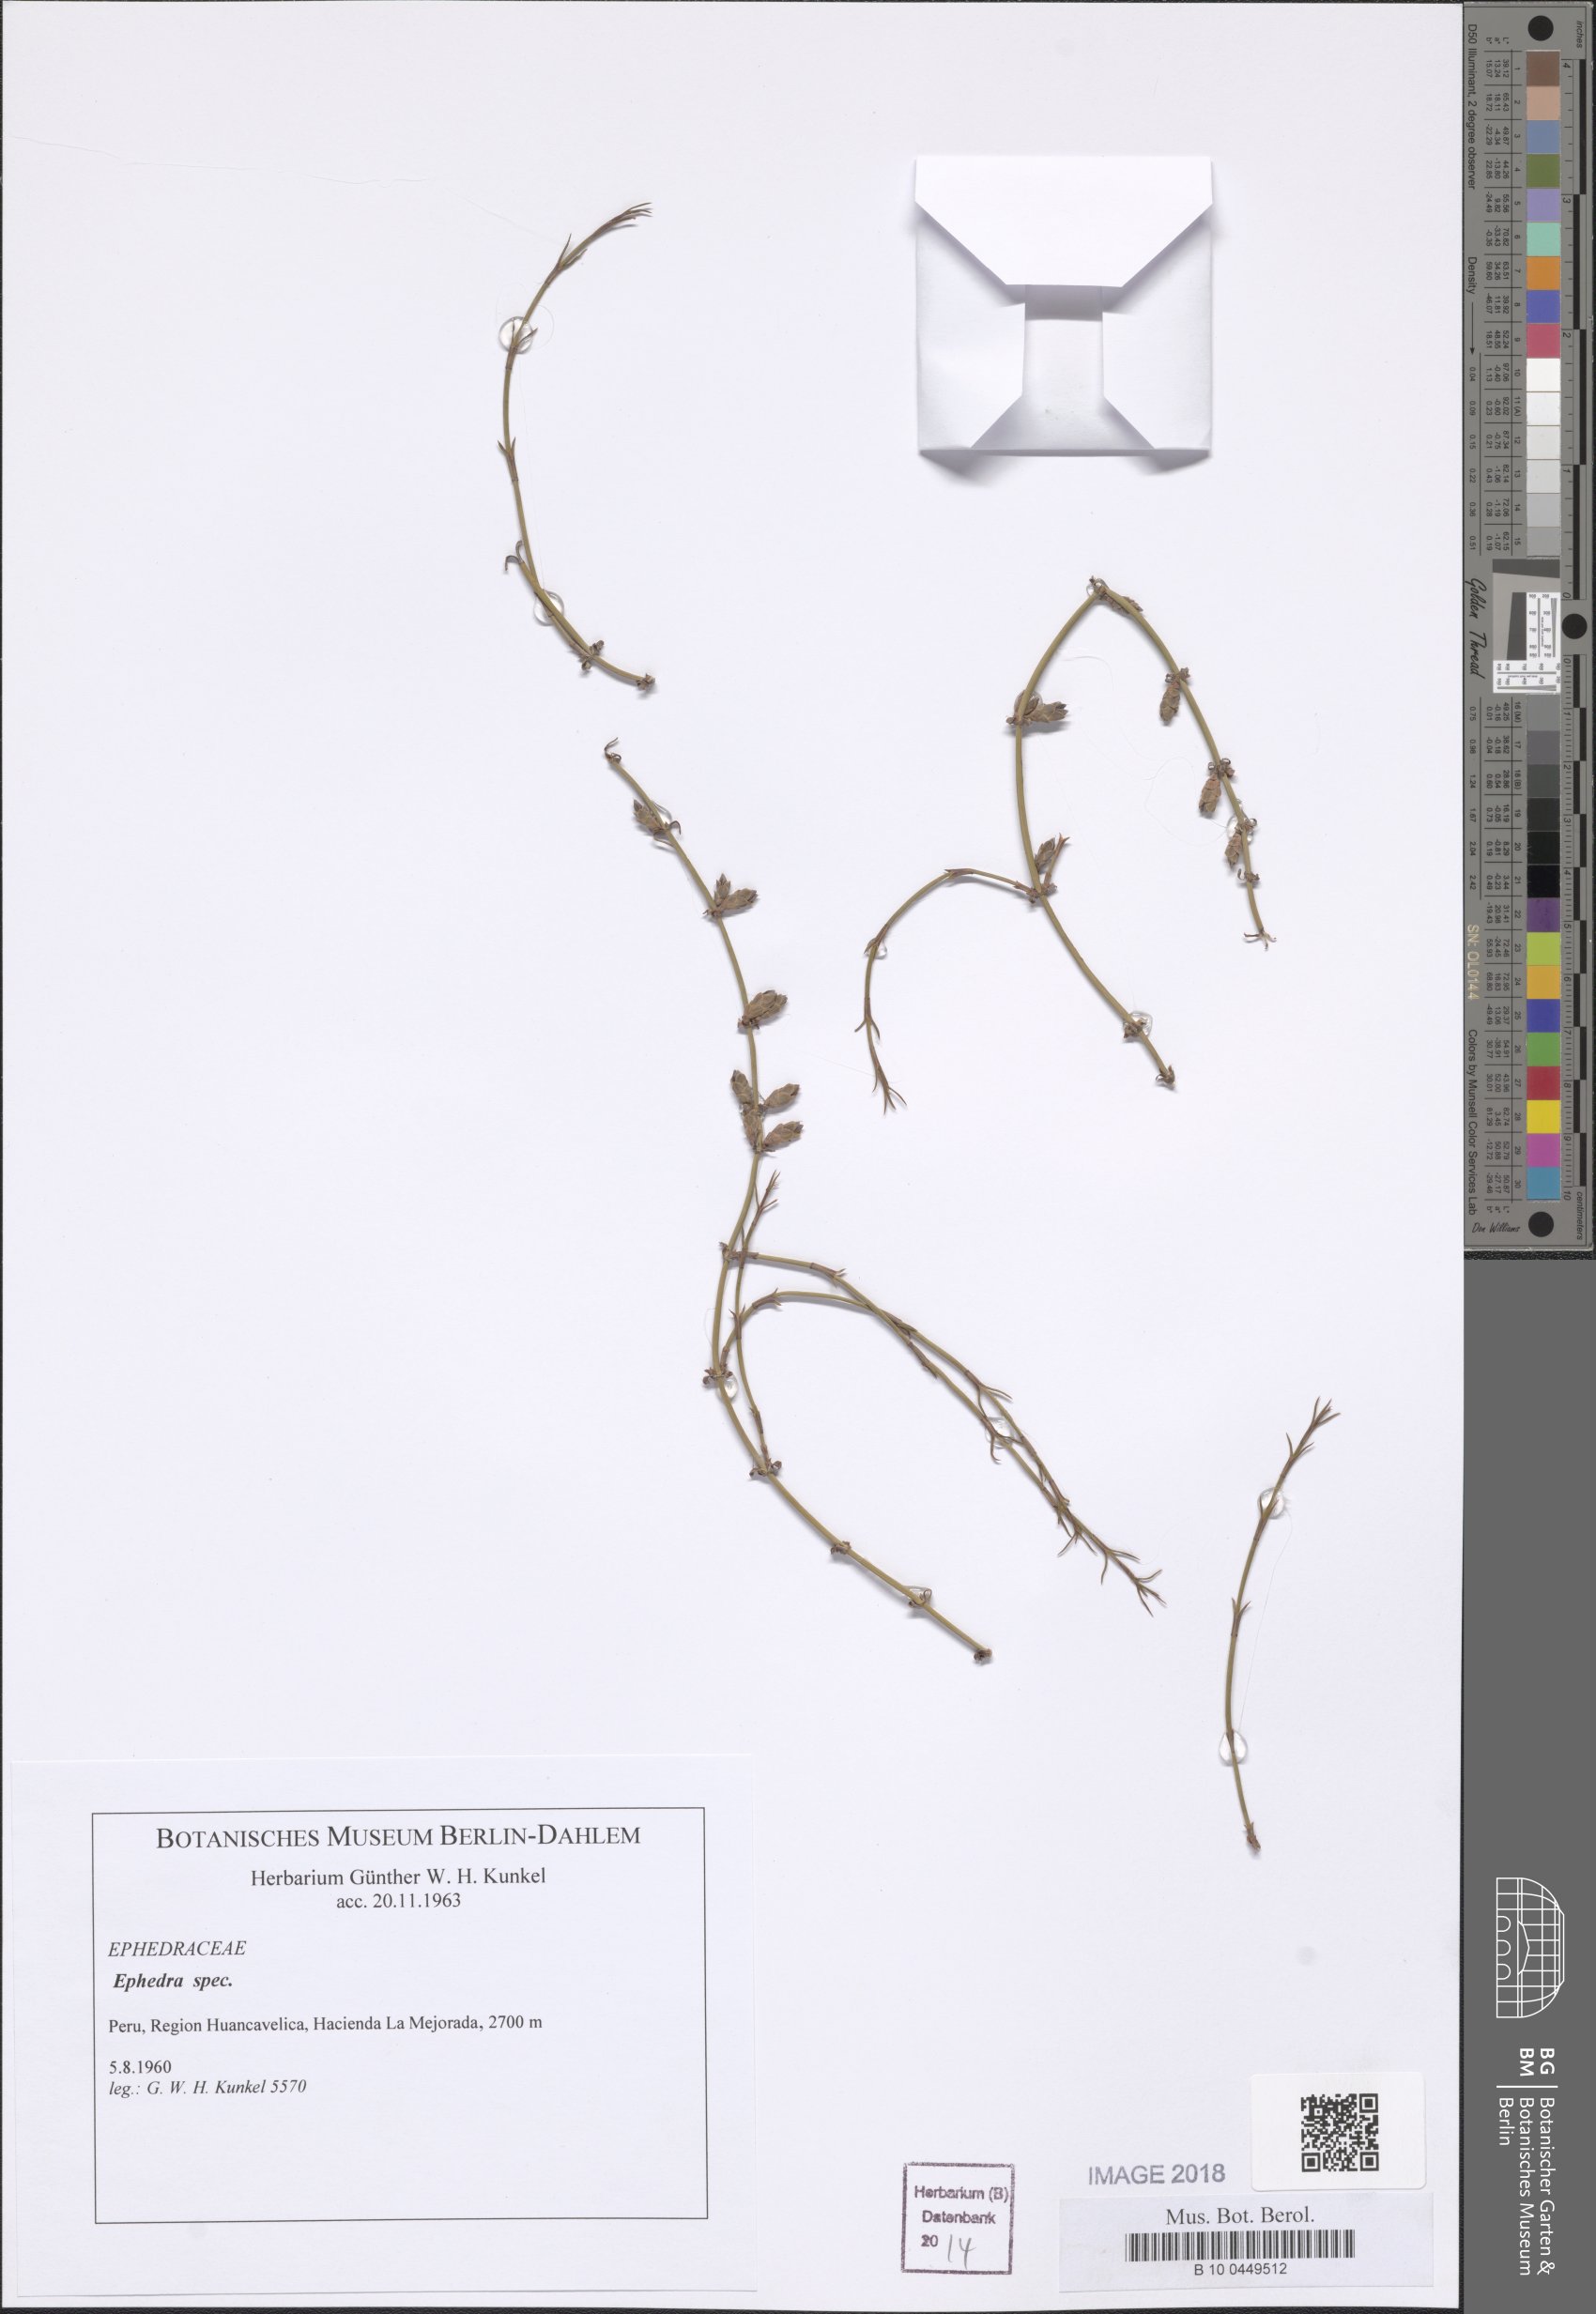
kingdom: Plantae
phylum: Tracheophyta
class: Gnetopsida
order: Ephedrales
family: Ephedraceae
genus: Ephedra
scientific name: Ephedra
